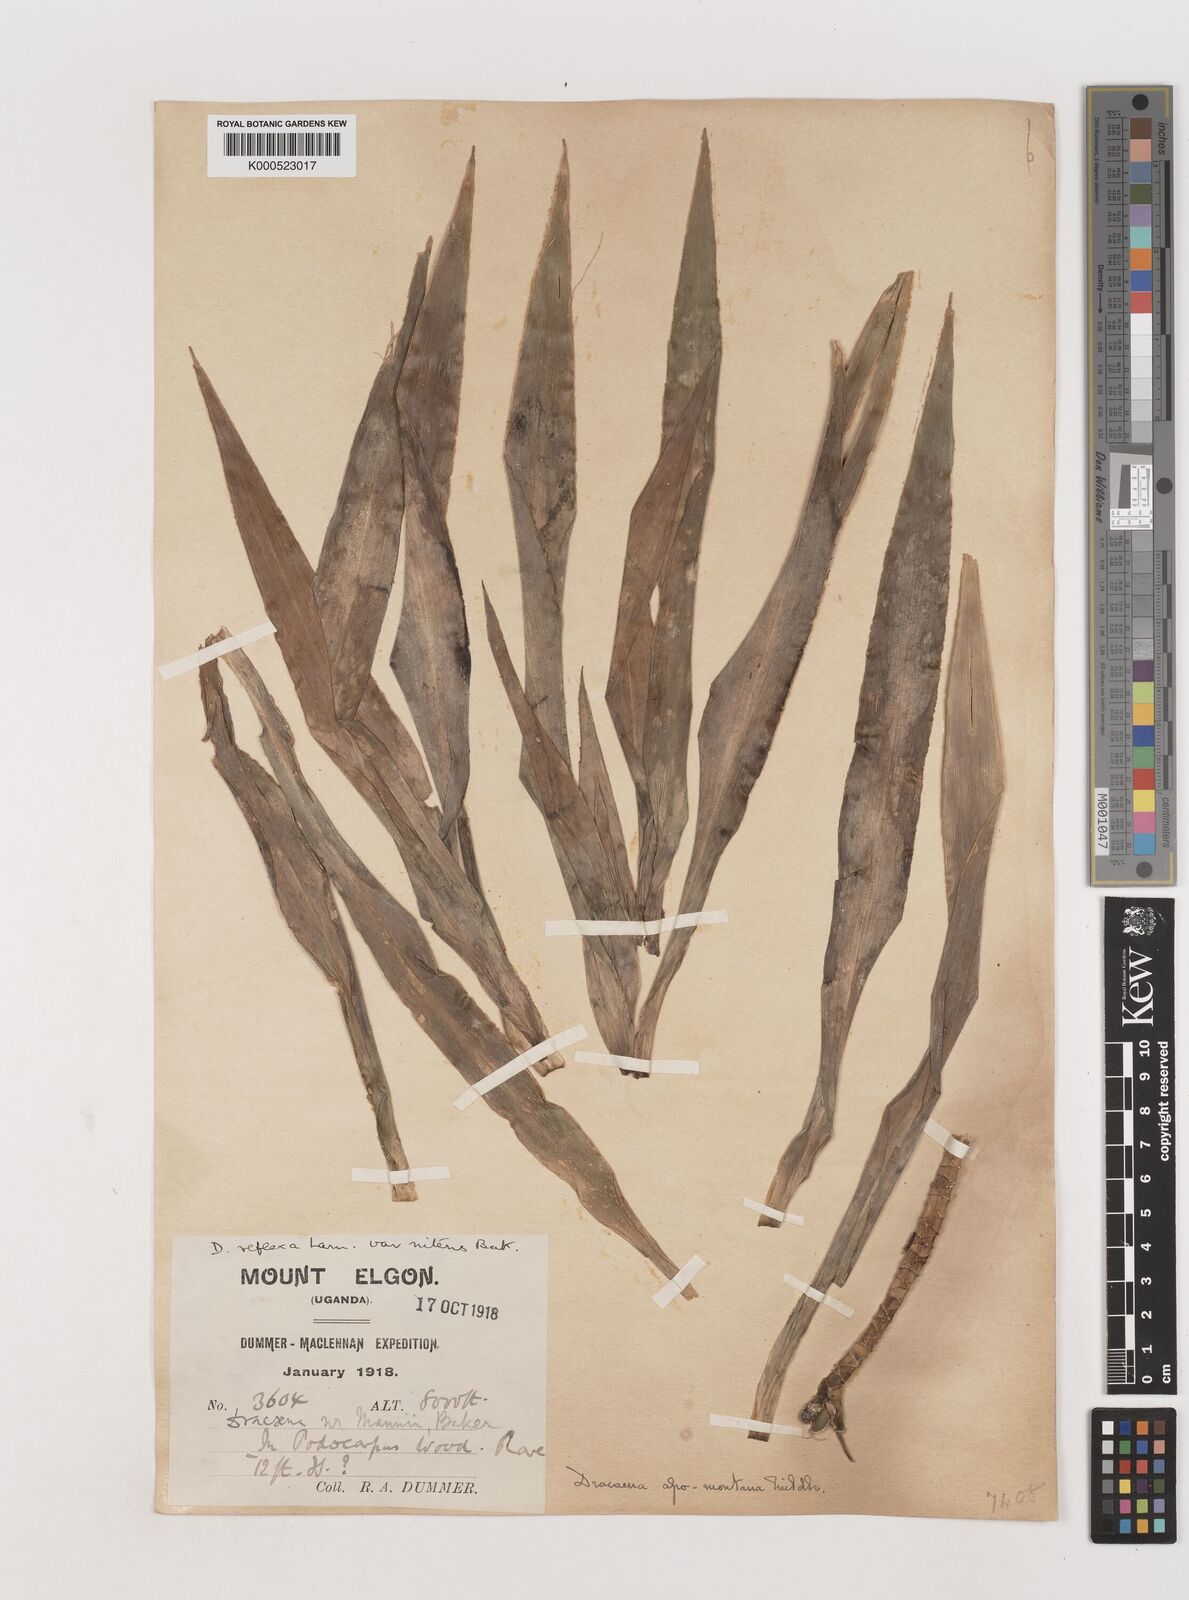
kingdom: Plantae
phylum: Tracheophyta
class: Liliopsida
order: Asparagales
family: Asparagaceae
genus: Dracaena
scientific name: Dracaena afromontana
